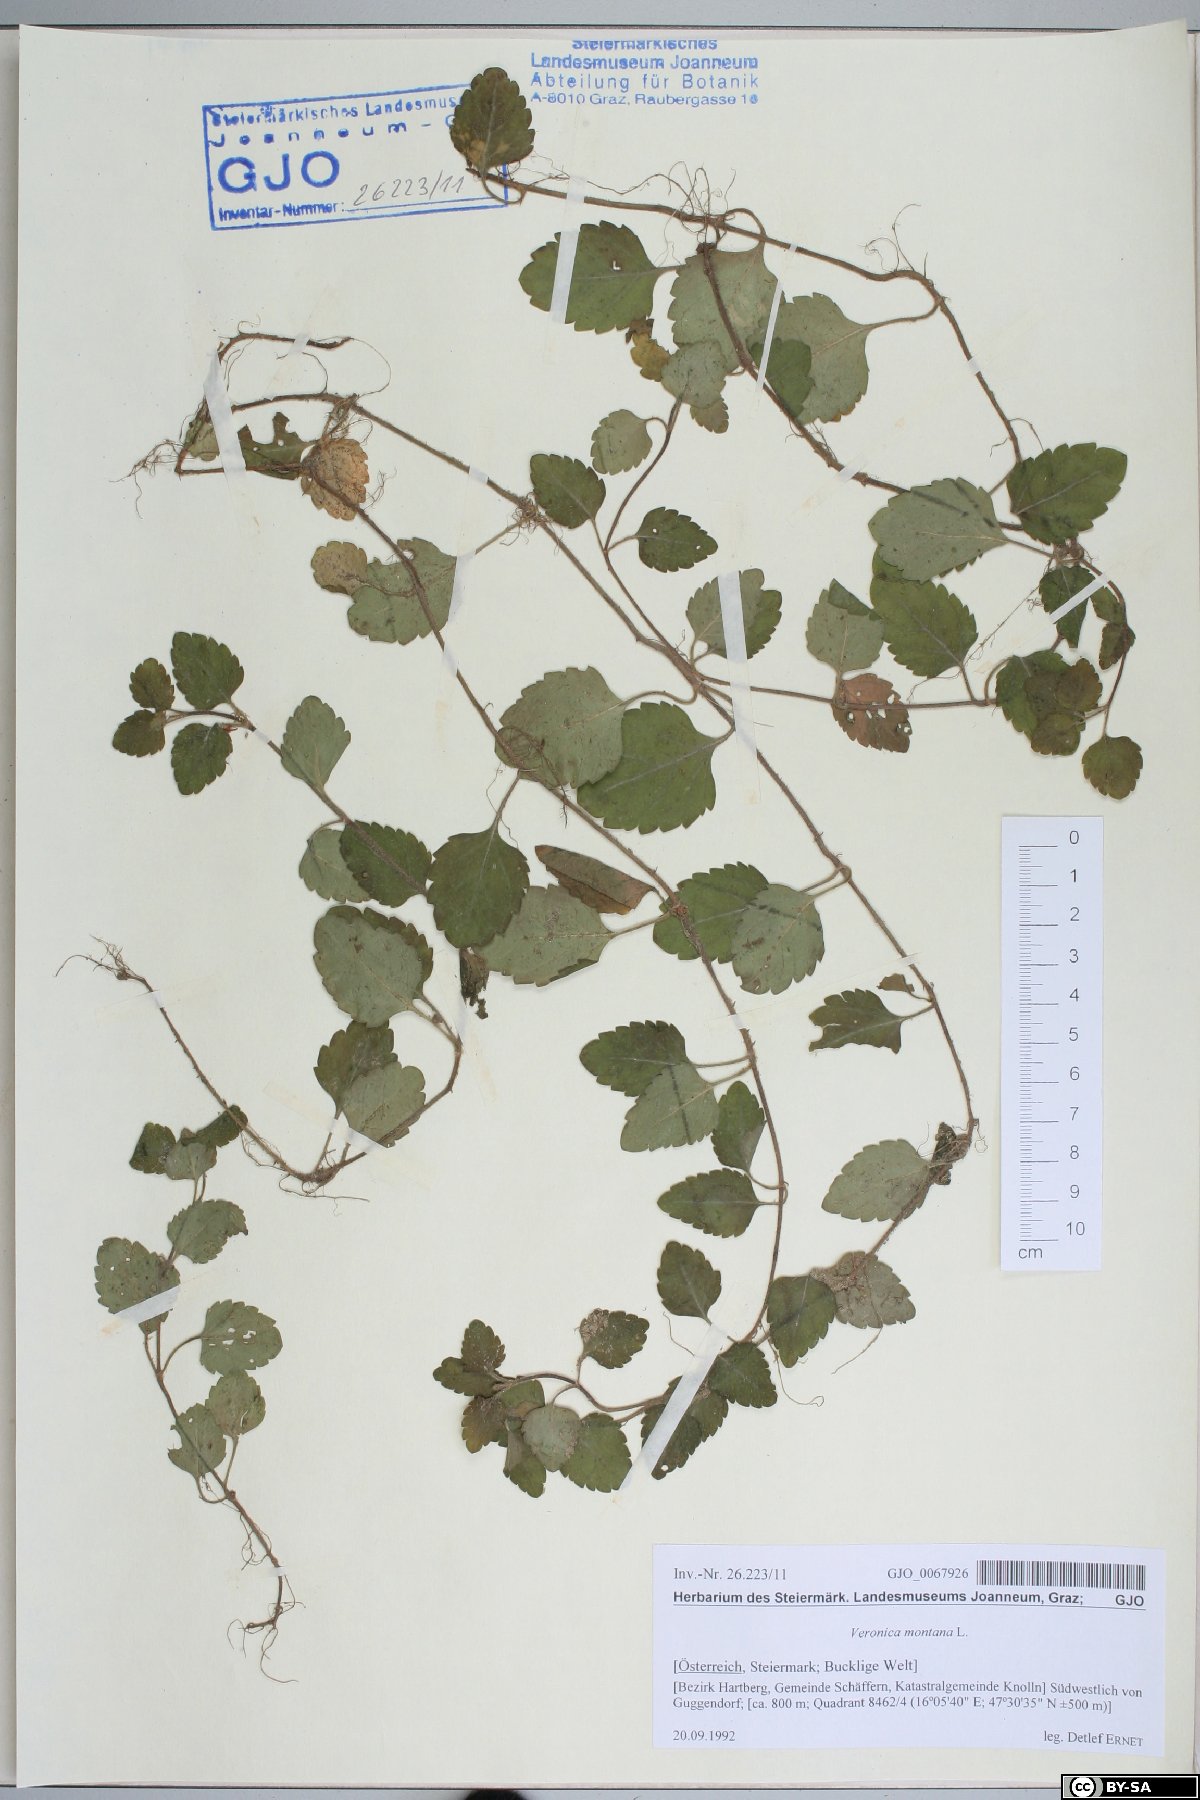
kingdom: Plantae
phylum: Tracheophyta
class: Magnoliopsida
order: Lamiales
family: Plantaginaceae
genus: Veronica
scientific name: Veronica montana
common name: Wood speedwell
